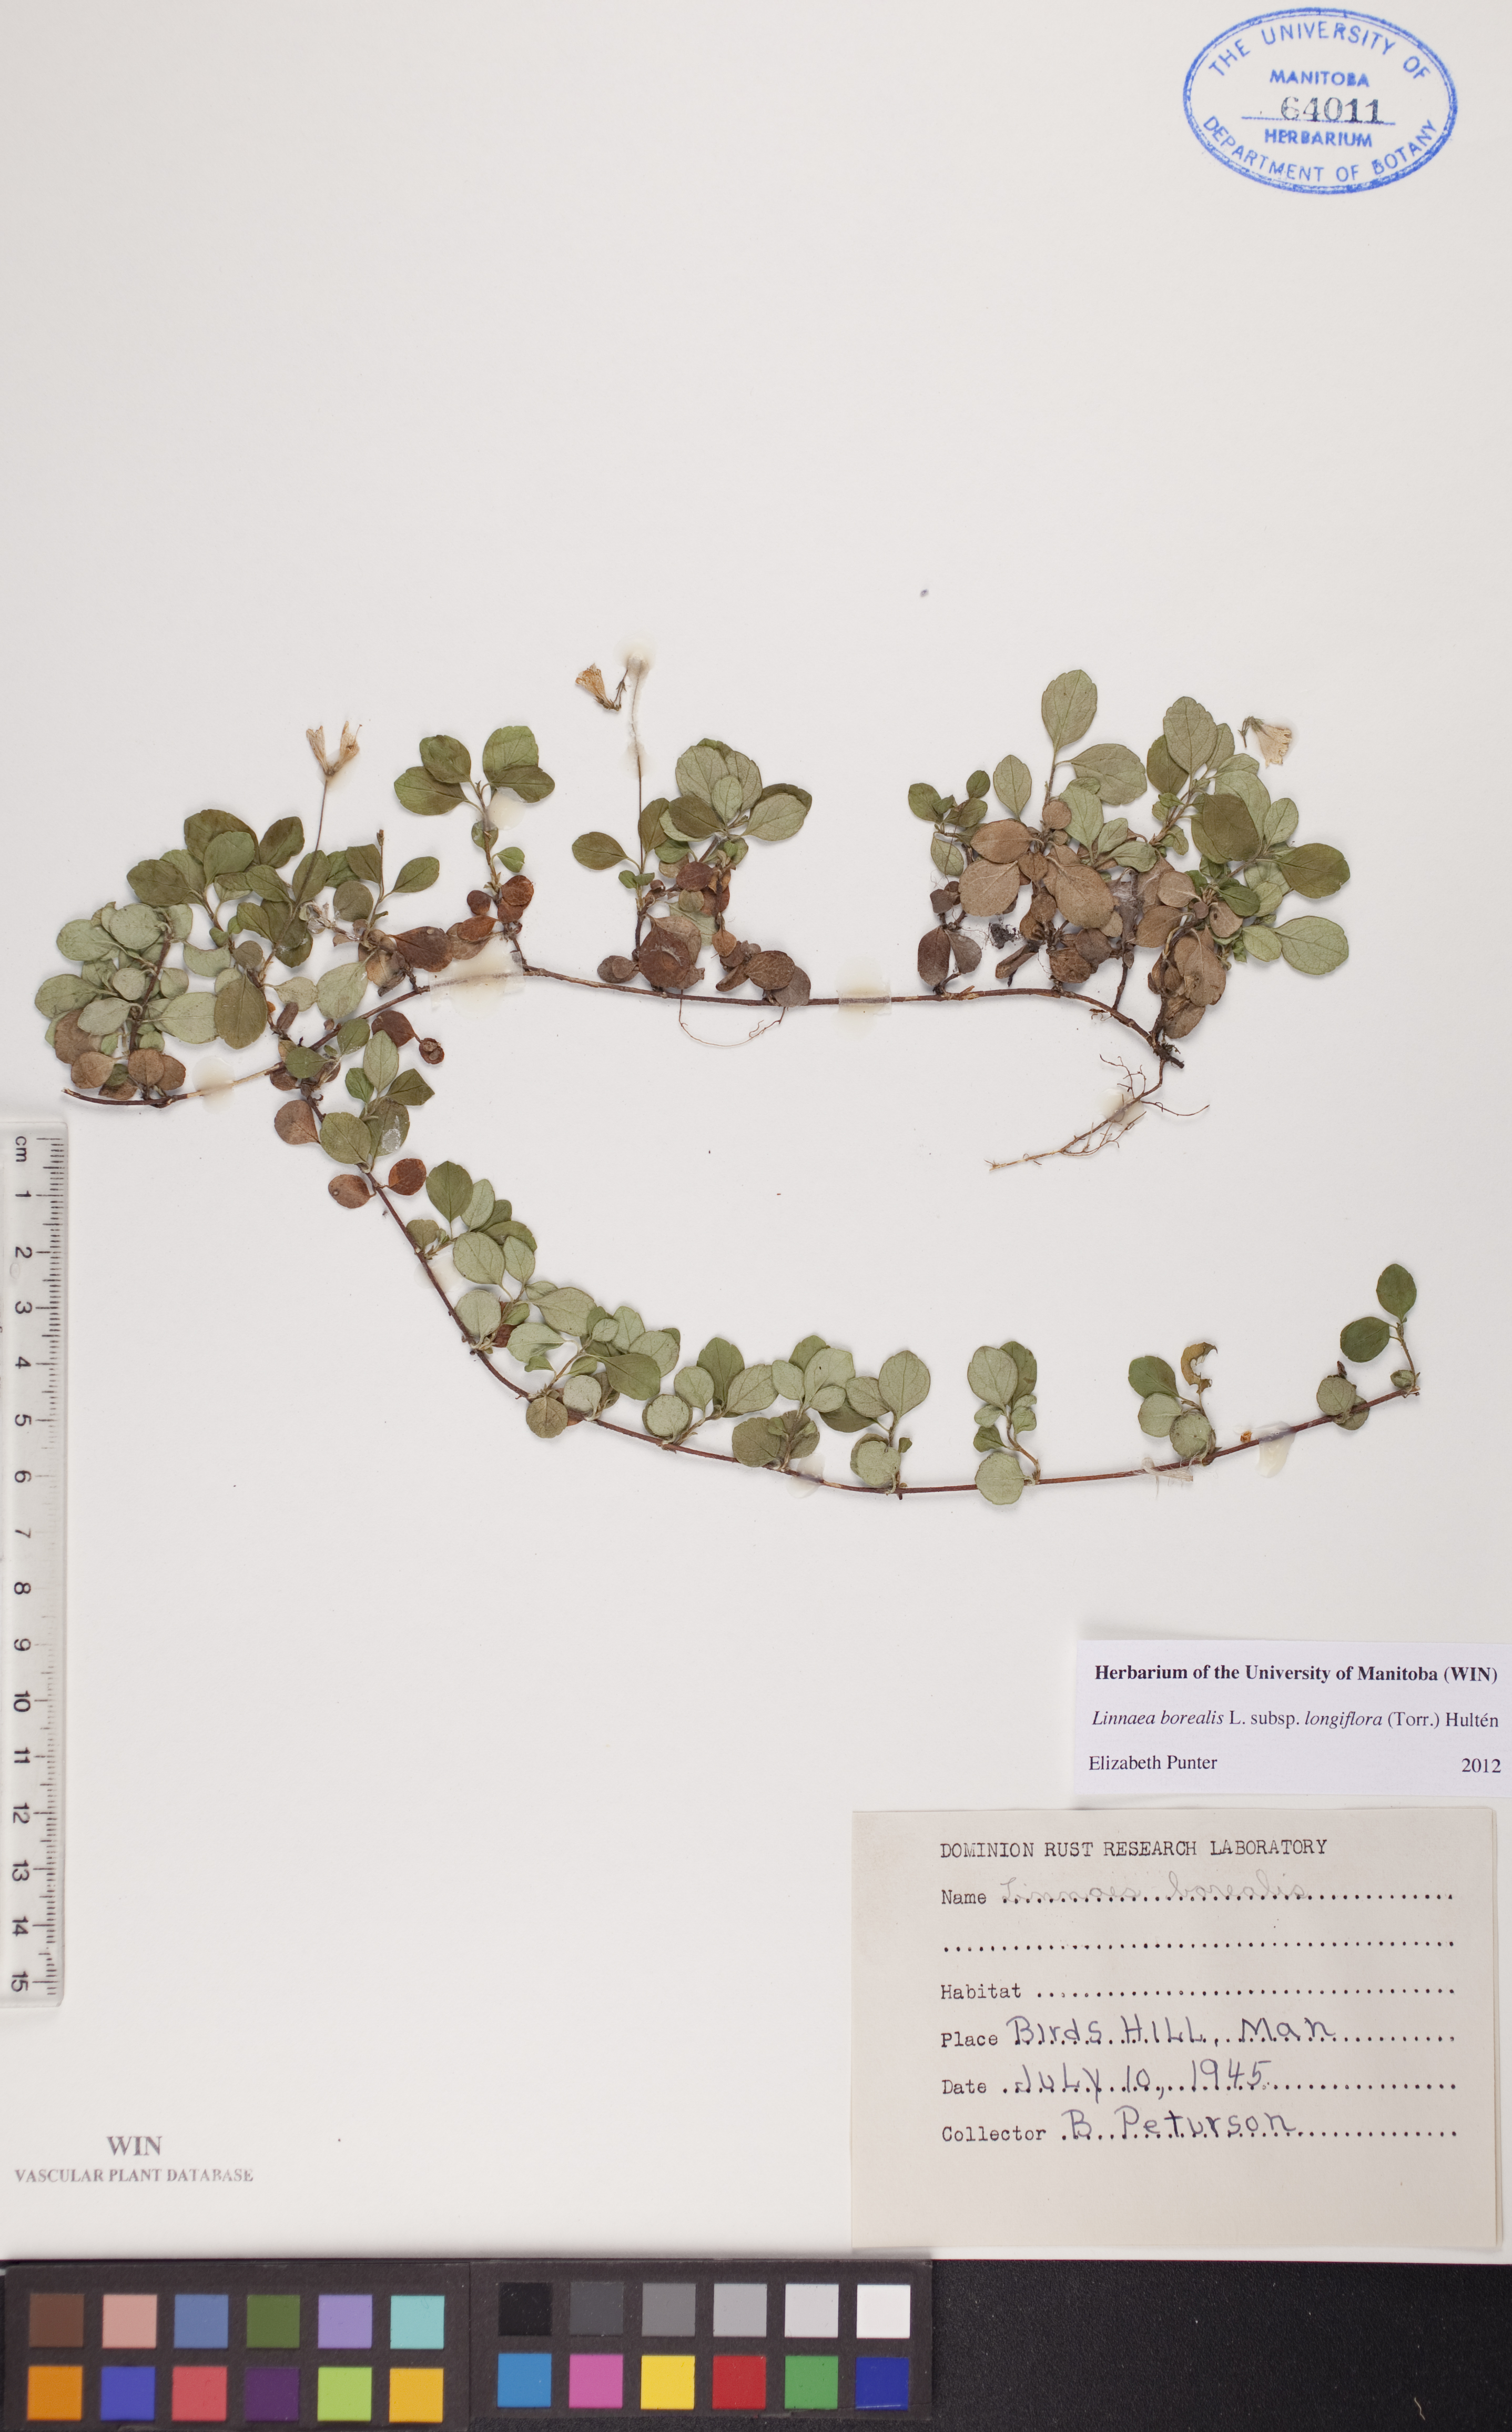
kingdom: Plantae
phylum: Tracheophyta
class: Magnoliopsida
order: Dipsacales
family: Caprifoliaceae
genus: Linnaea
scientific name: Linnaea borealis
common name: Twinflower
